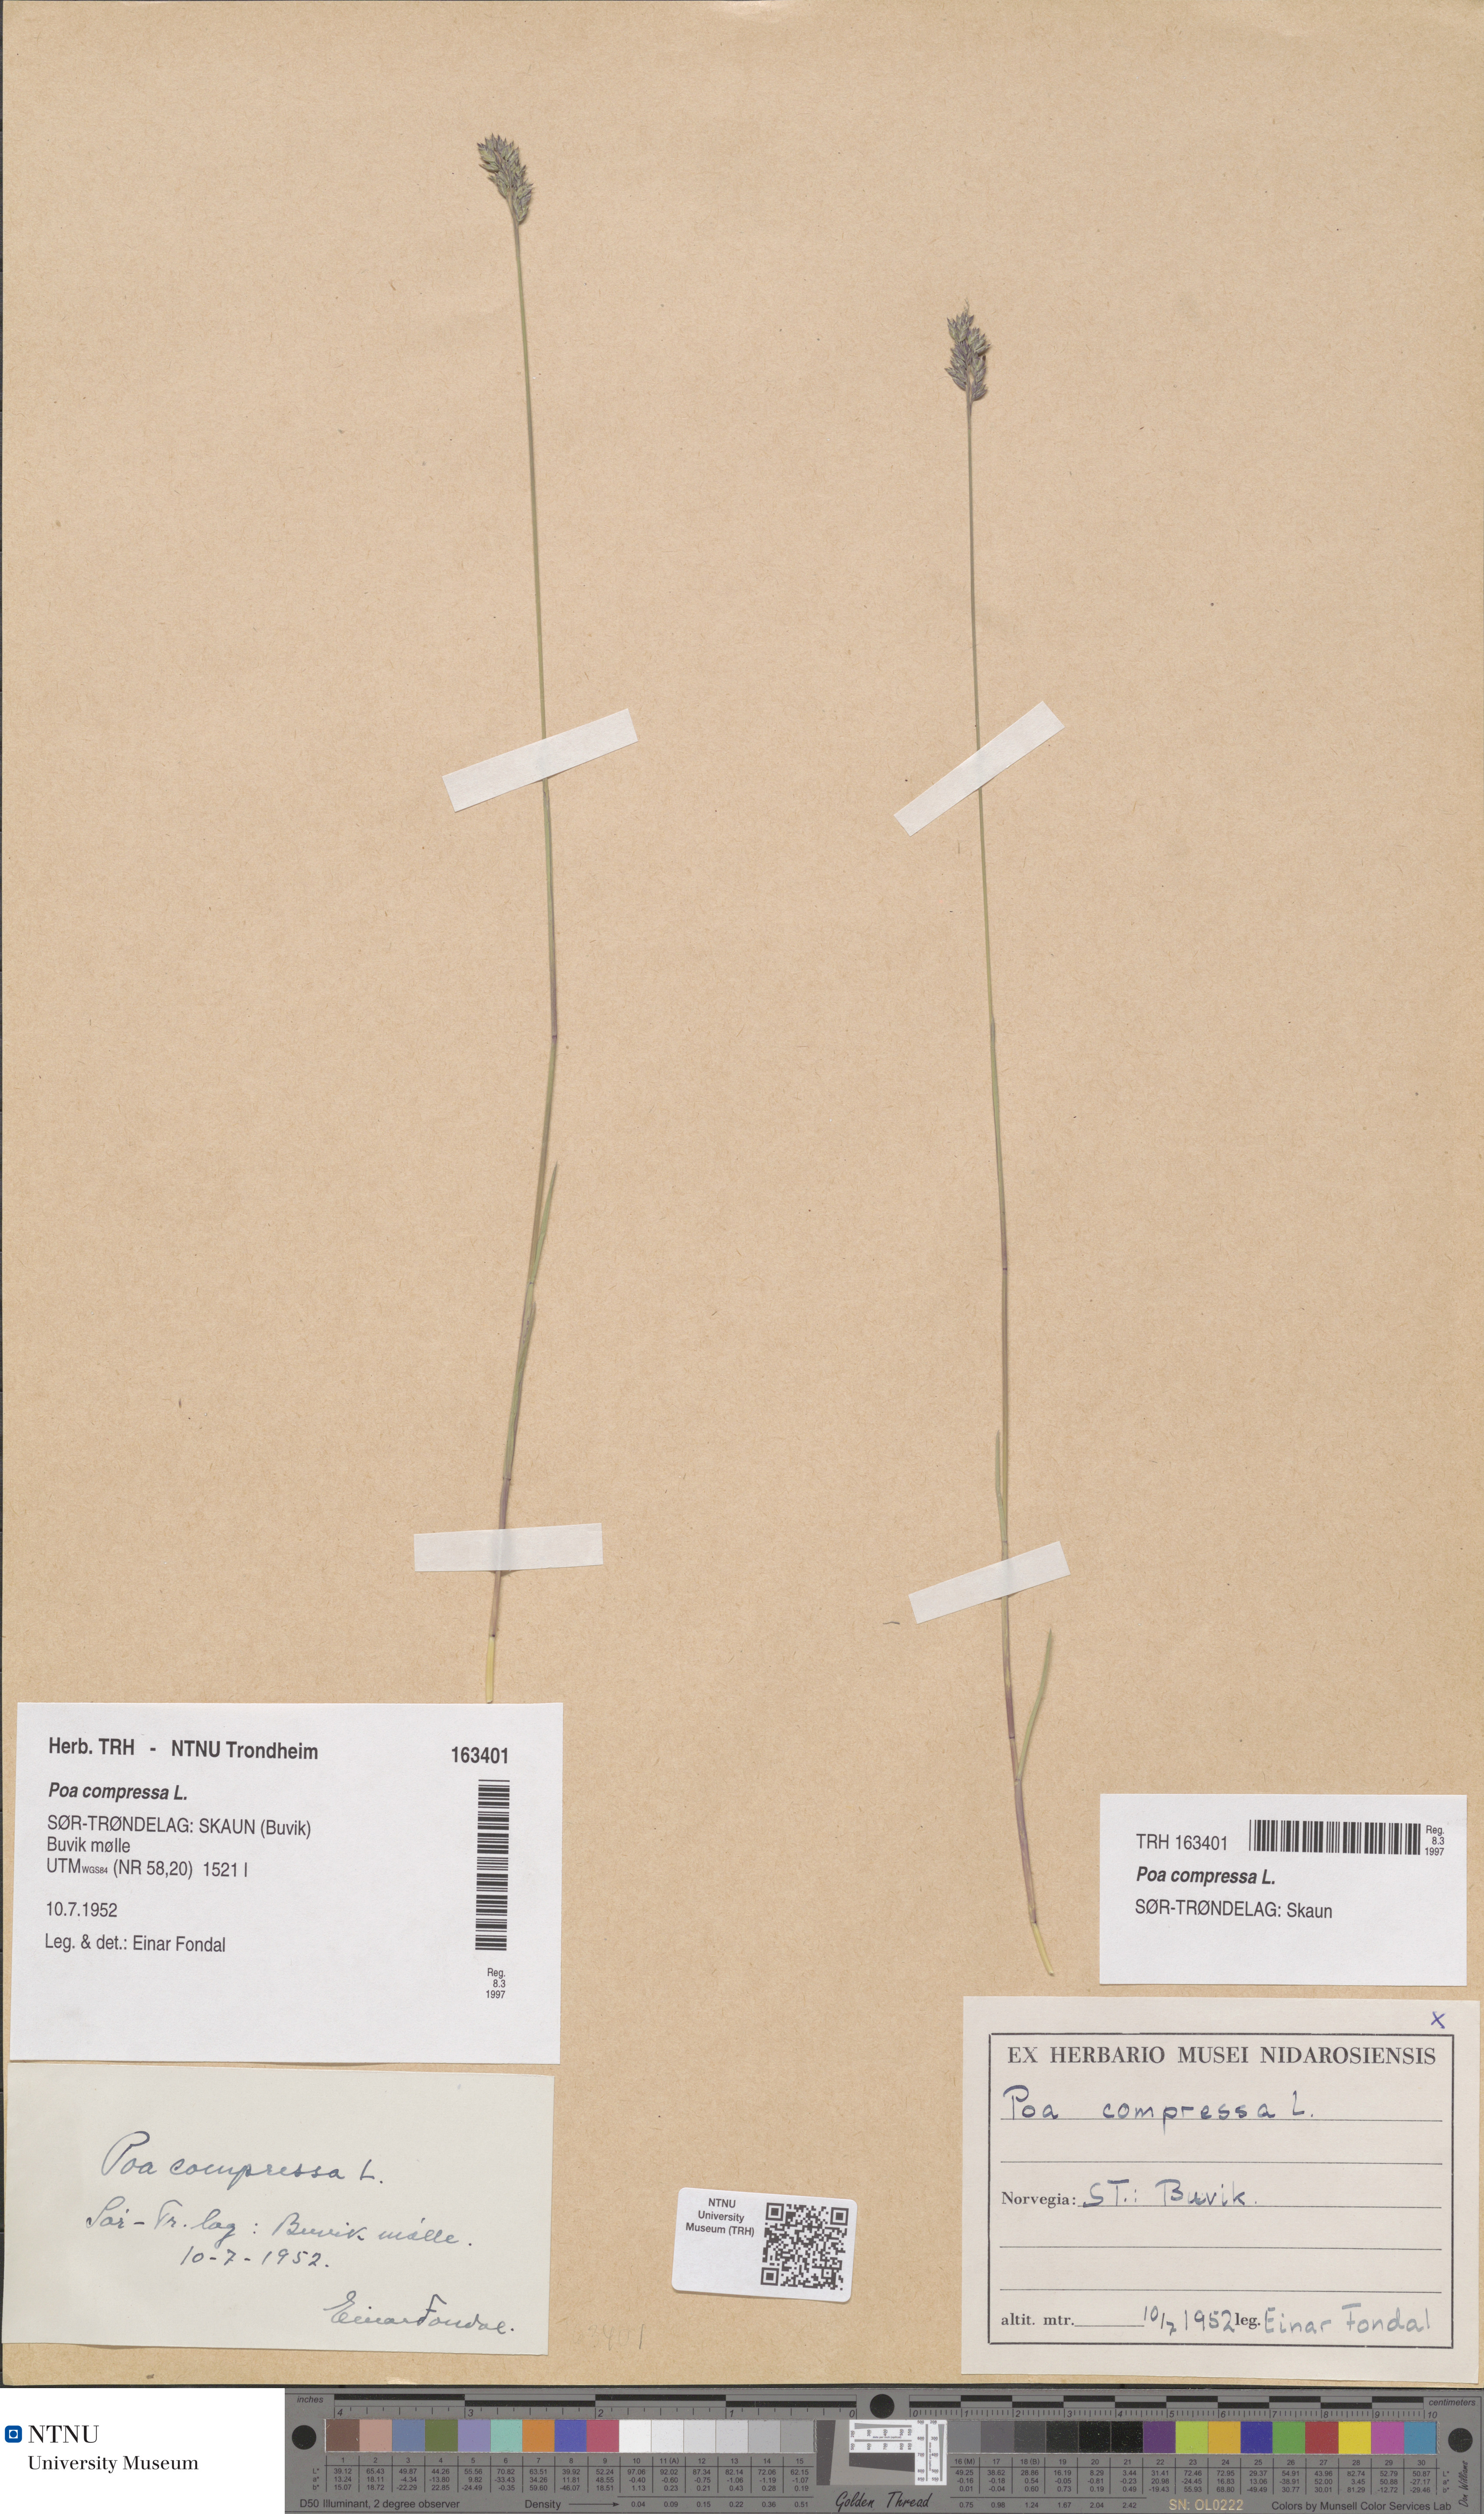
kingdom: Plantae
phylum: Tracheophyta
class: Liliopsida
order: Poales
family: Poaceae
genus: Poa
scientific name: Poa compressa
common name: Canada bluegrass
